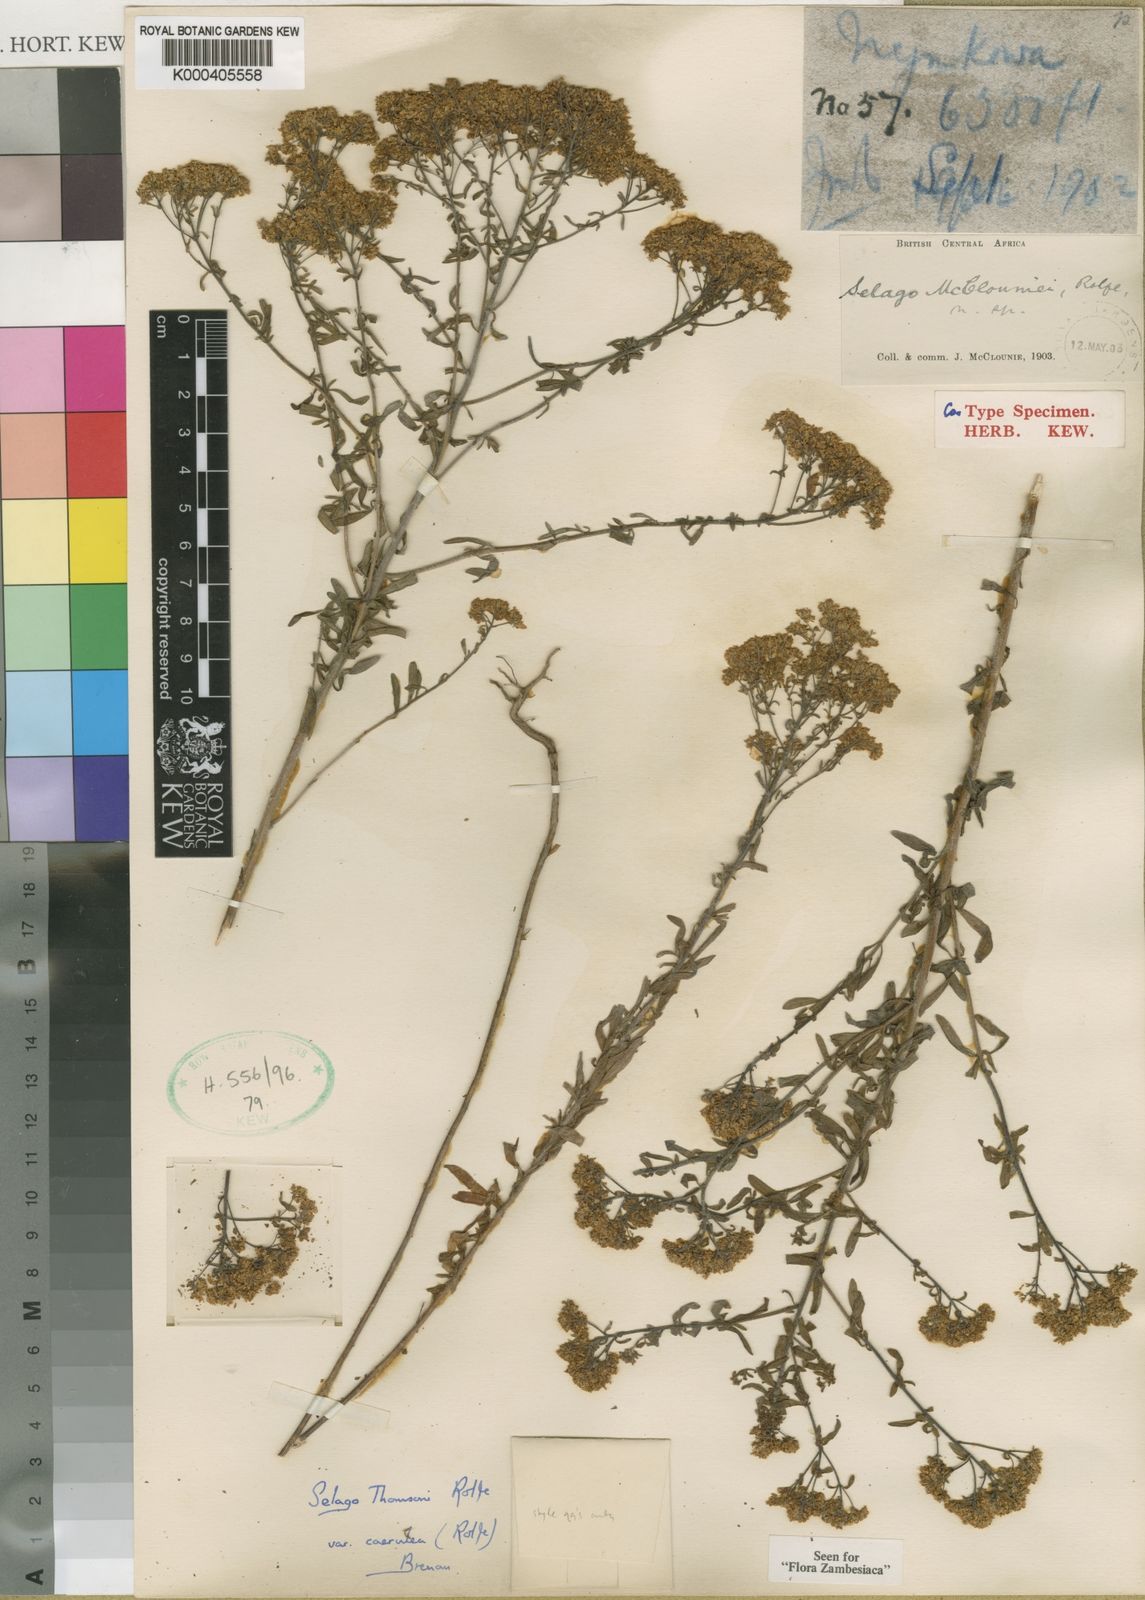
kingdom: Plantae
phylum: Tracheophyta
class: Magnoliopsida
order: Lamiales
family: Scrophulariaceae
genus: Selago
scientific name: Selago viscosa
